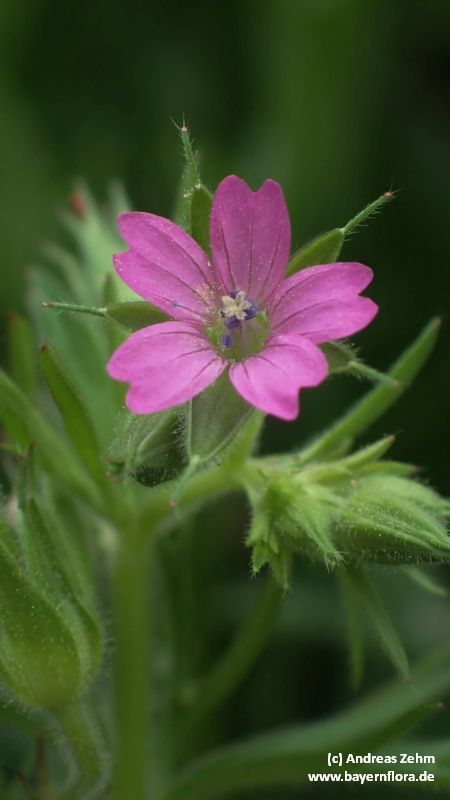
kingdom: Plantae
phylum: Tracheophyta
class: Magnoliopsida
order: Geraniales
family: Geraniaceae
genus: Geranium
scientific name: Geranium dissectum
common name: Cut-leaved crane's-bill
